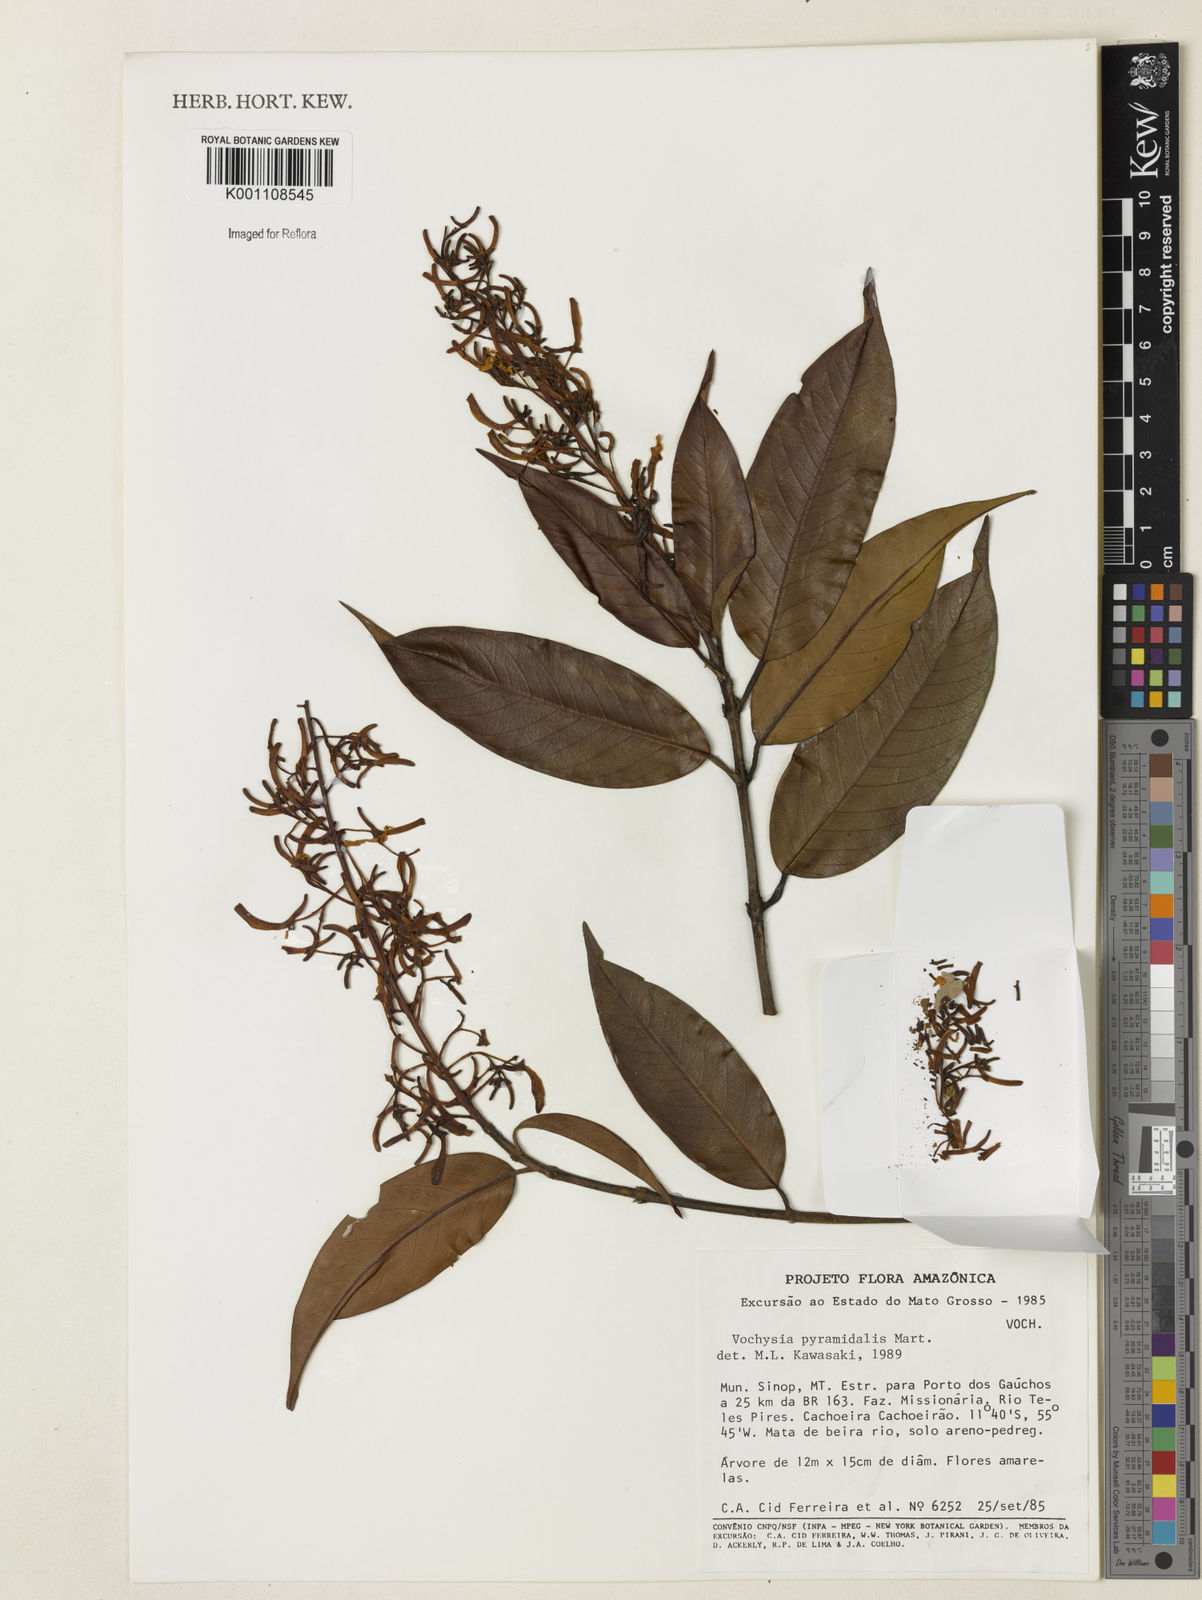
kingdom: Plantae
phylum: Tracheophyta
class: Magnoliopsida
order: Myrtales
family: Vochysiaceae
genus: Vochysia
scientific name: Vochysia pyramidalis
